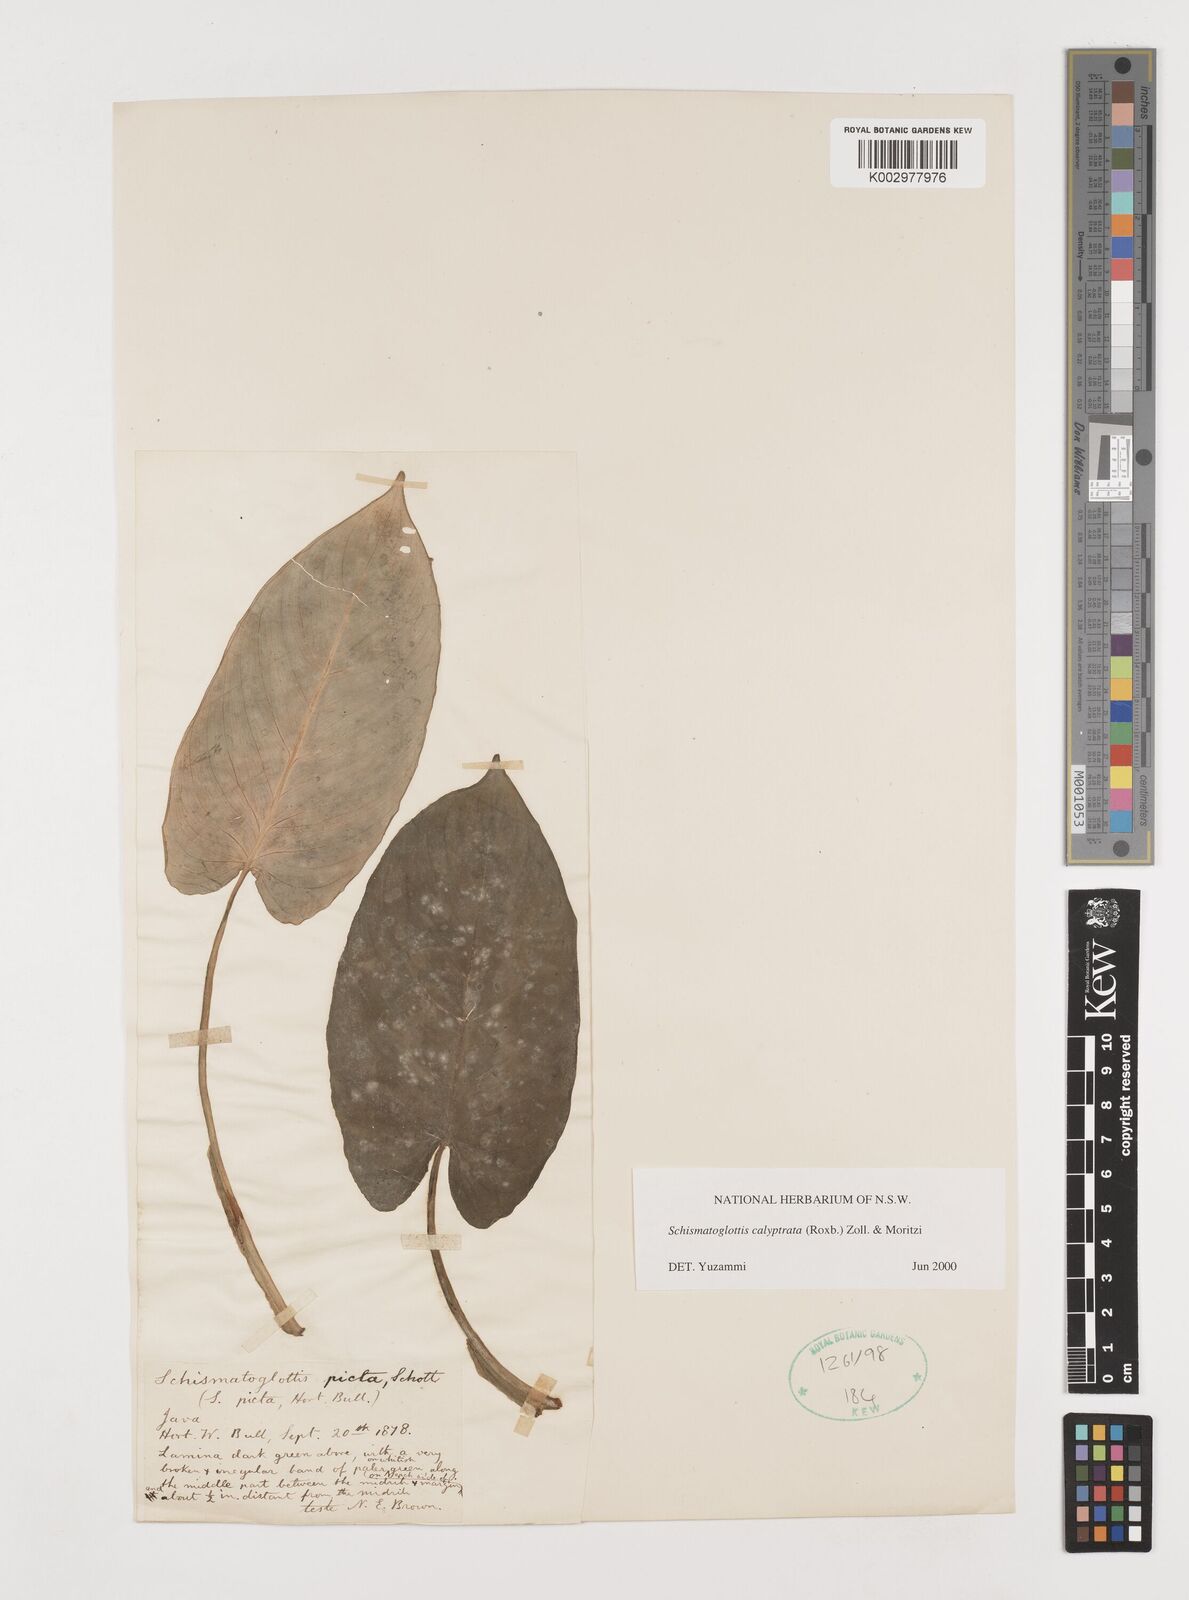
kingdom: Plantae
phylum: Tracheophyta
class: Liliopsida
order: Alismatales
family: Araceae
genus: Schismatoglottis
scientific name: Schismatoglottis calyptrata
